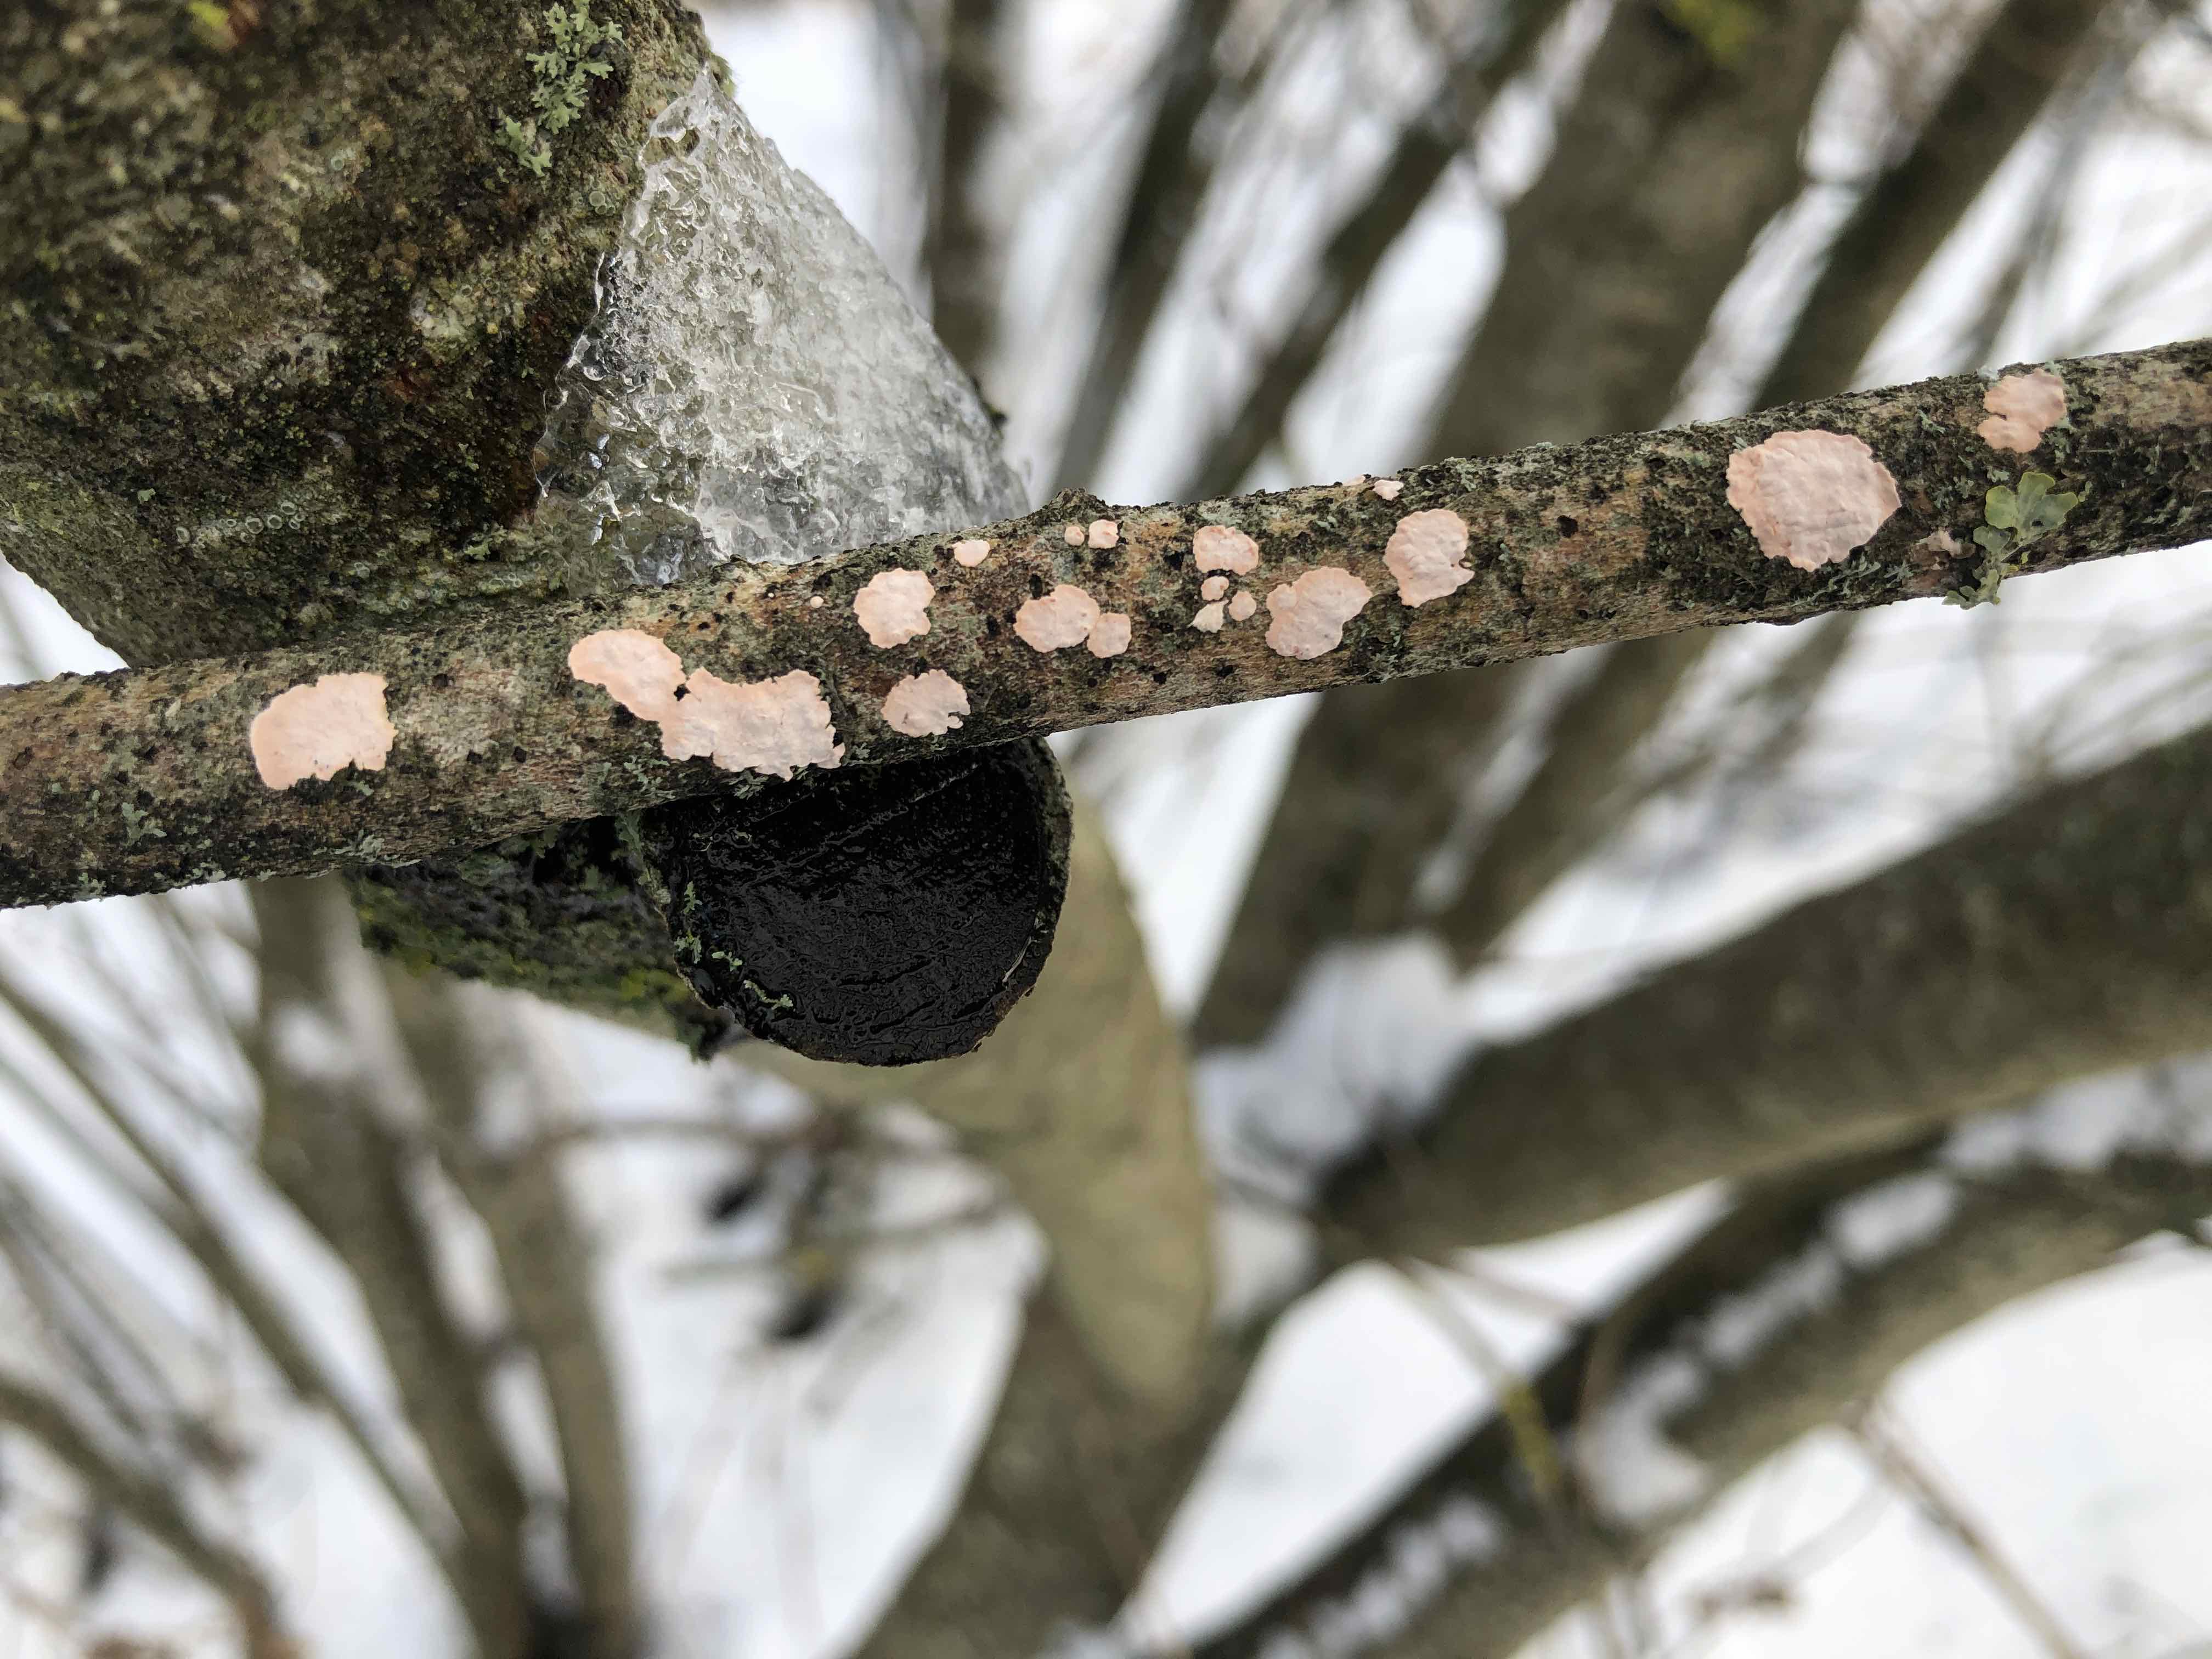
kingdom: Fungi
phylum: Basidiomycota
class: Agaricomycetes
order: Corticiales
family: Corticiaceae
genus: Corticium
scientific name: Corticium roseum
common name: rosa barkskind
